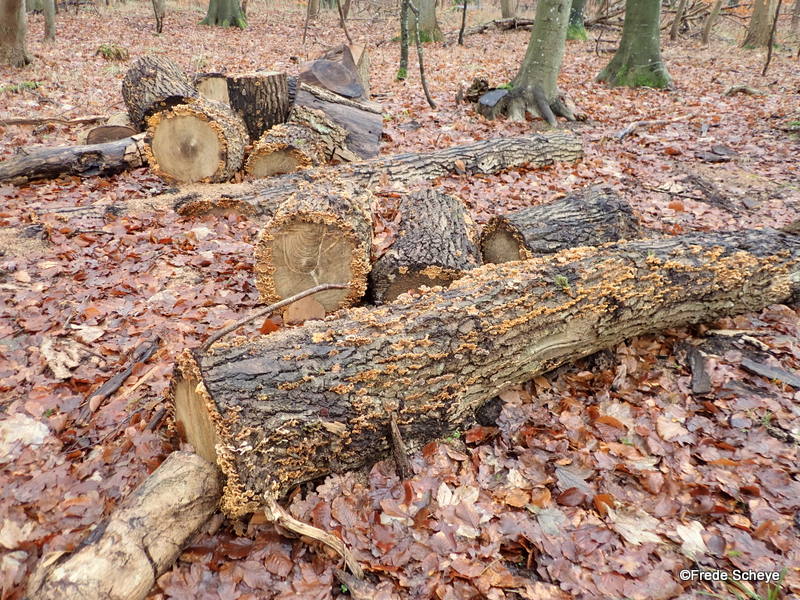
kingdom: Fungi
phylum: Basidiomycota
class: Agaricomycetes
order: Russulales
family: Stereaceae
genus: Stereum
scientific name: Stereum hirsutum
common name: håret lædersvamp
